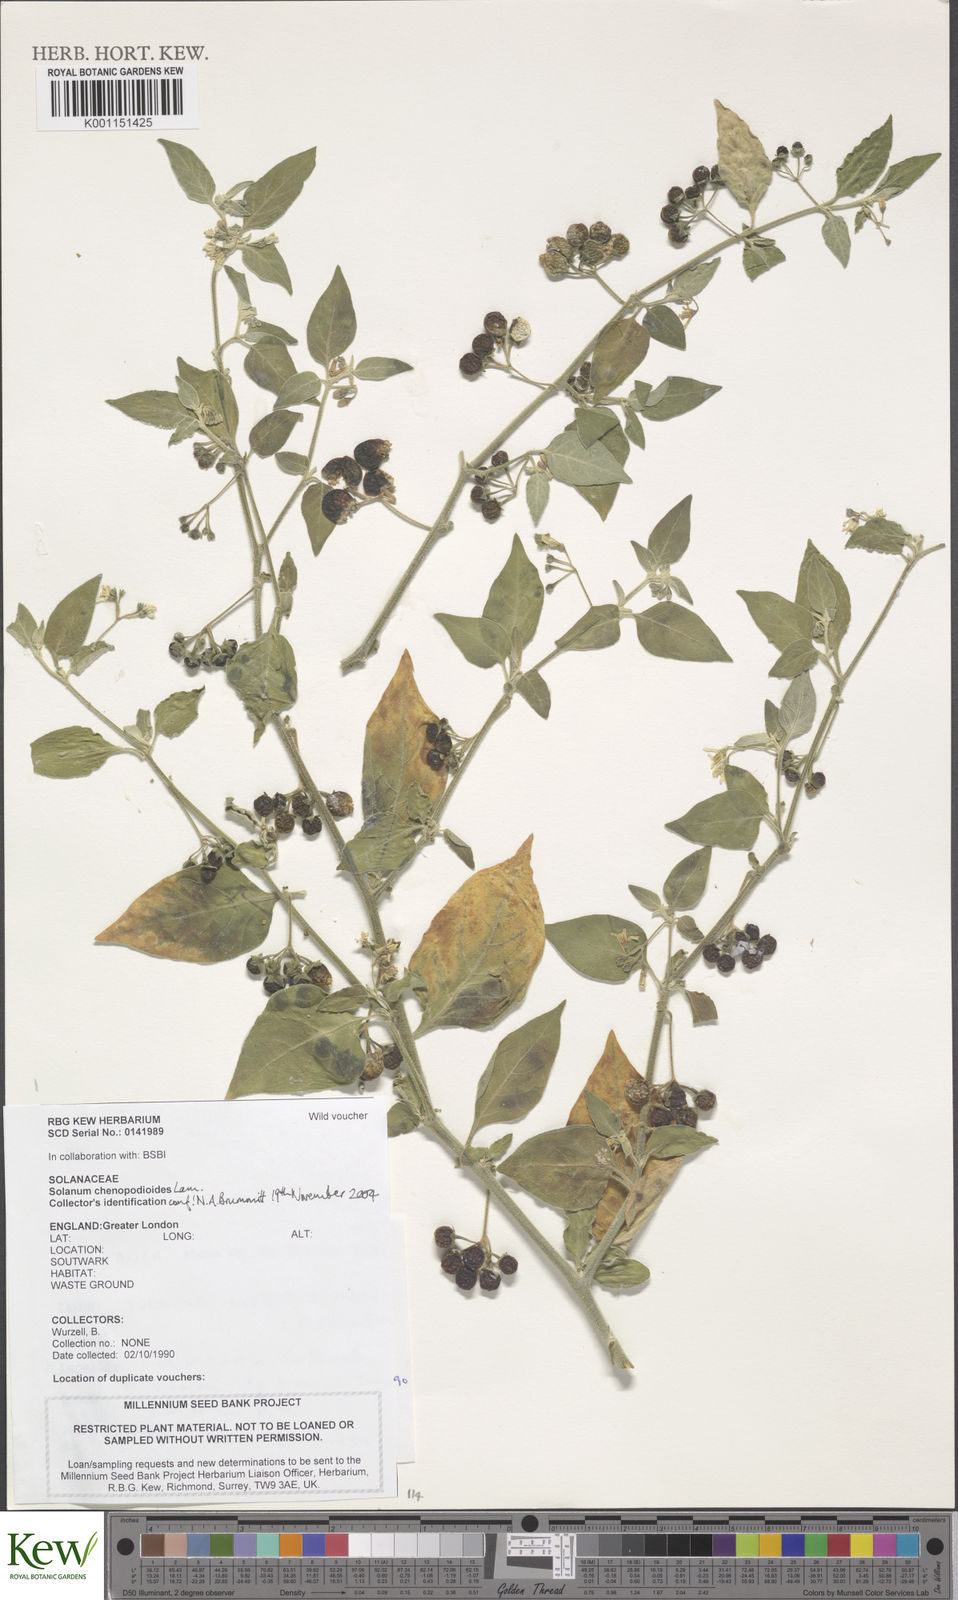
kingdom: Plantae
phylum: Tracheophyta
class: Magnoliopsida
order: Solanales
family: Solanaceae
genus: Solanum
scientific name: Solanum chenopodioides
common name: Tall nightshade
